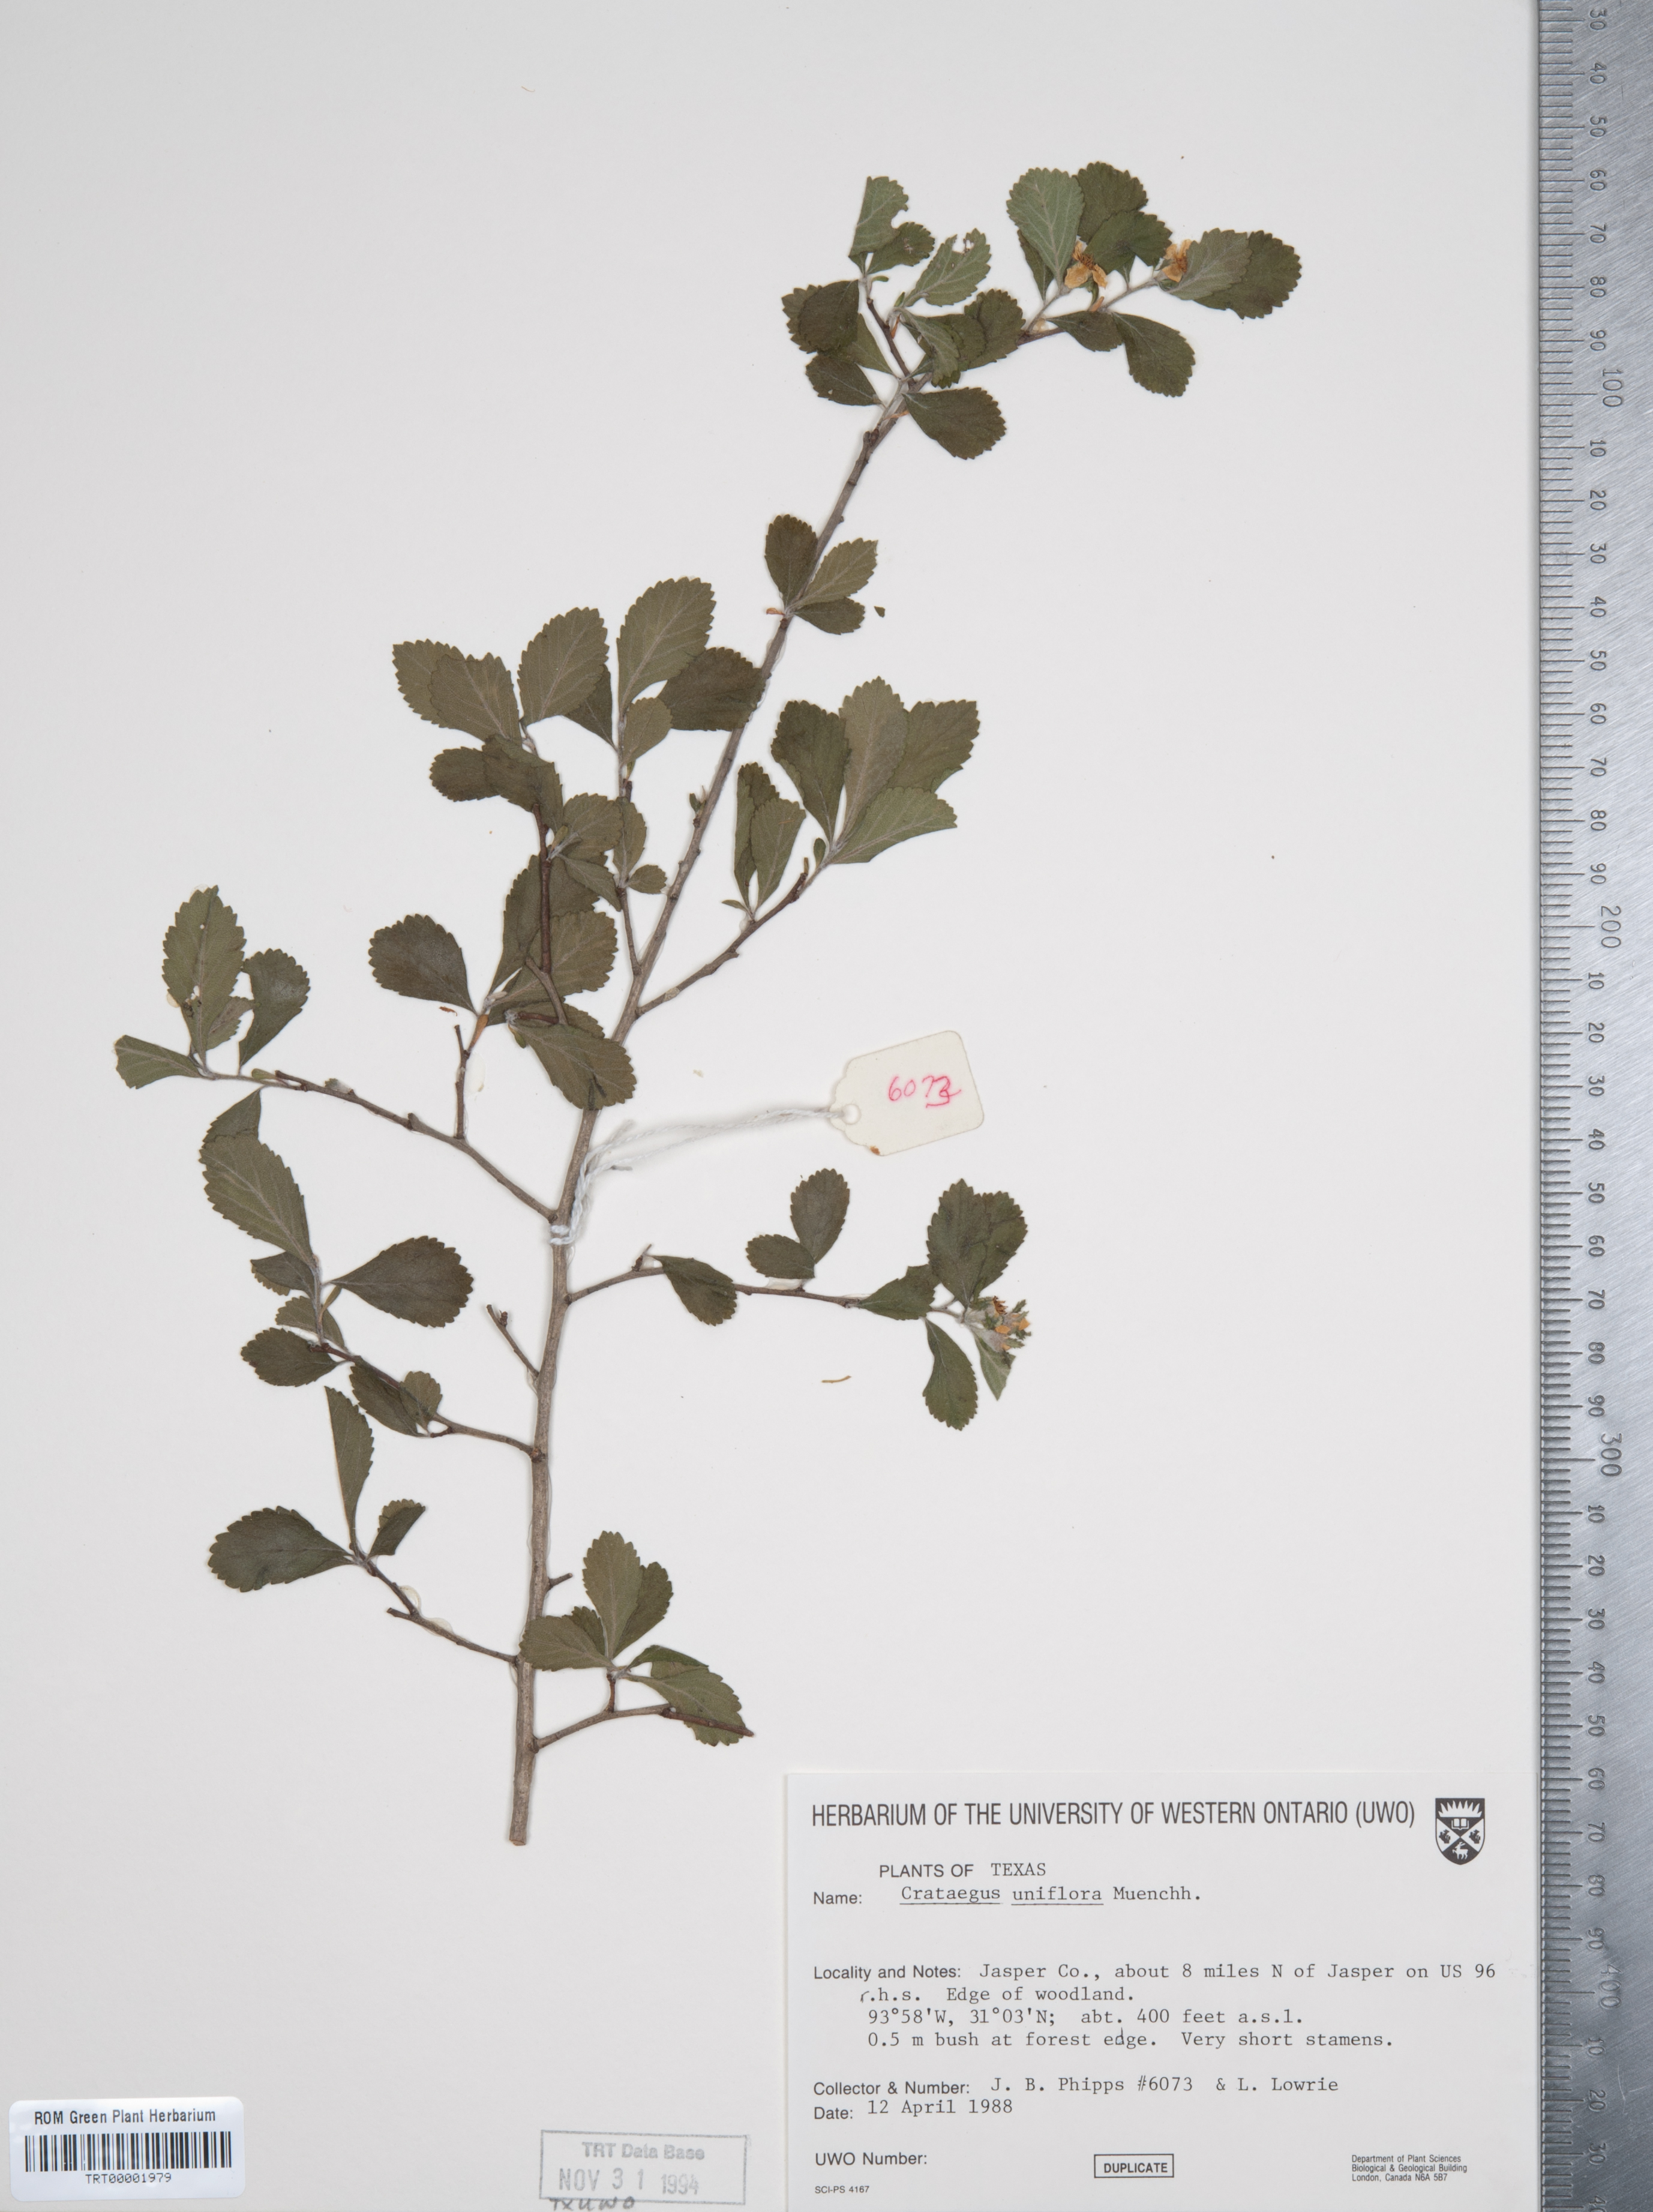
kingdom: Plantae
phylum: Tracheophyta
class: Magnoliopsida
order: Rosales
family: Rosaceae
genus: Crataegus
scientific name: Crataegus uniflora
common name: One-flower hawthorn
